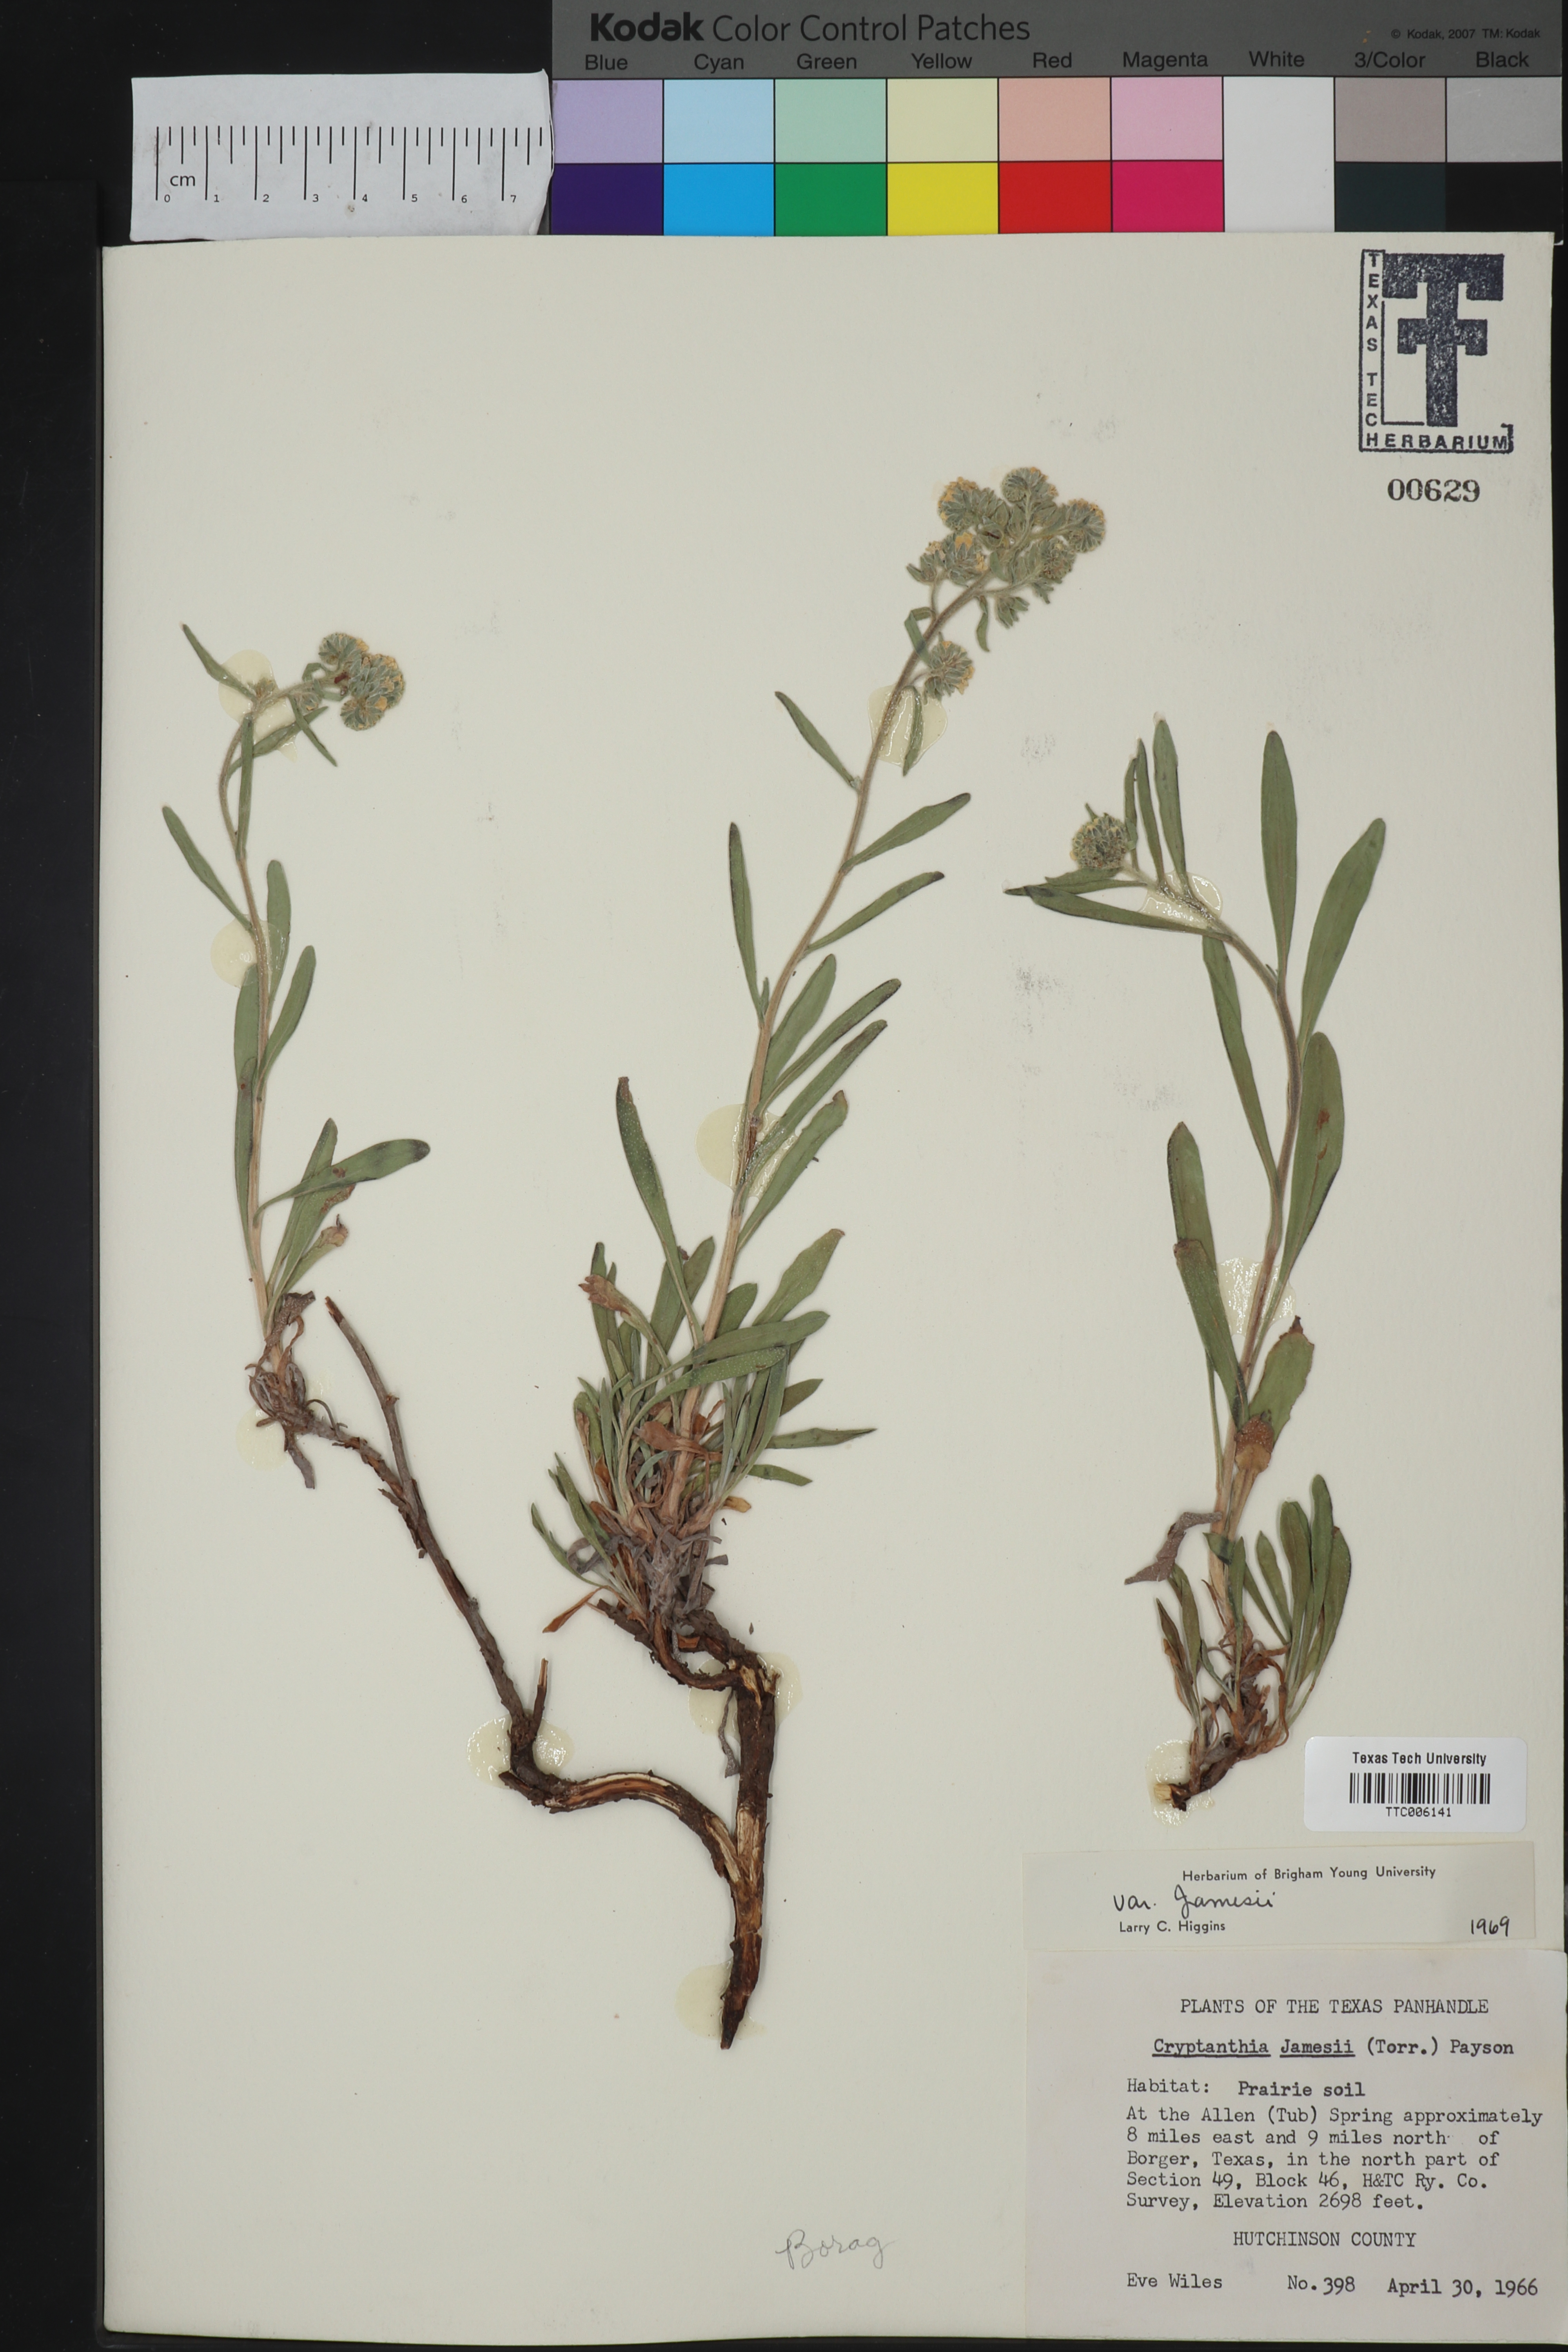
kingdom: Plantae
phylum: Tracheophyta
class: Magnoliopsida
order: Boraginales
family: Boraginaceae
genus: Oreocarya
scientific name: Oreocarya suffruticosa
